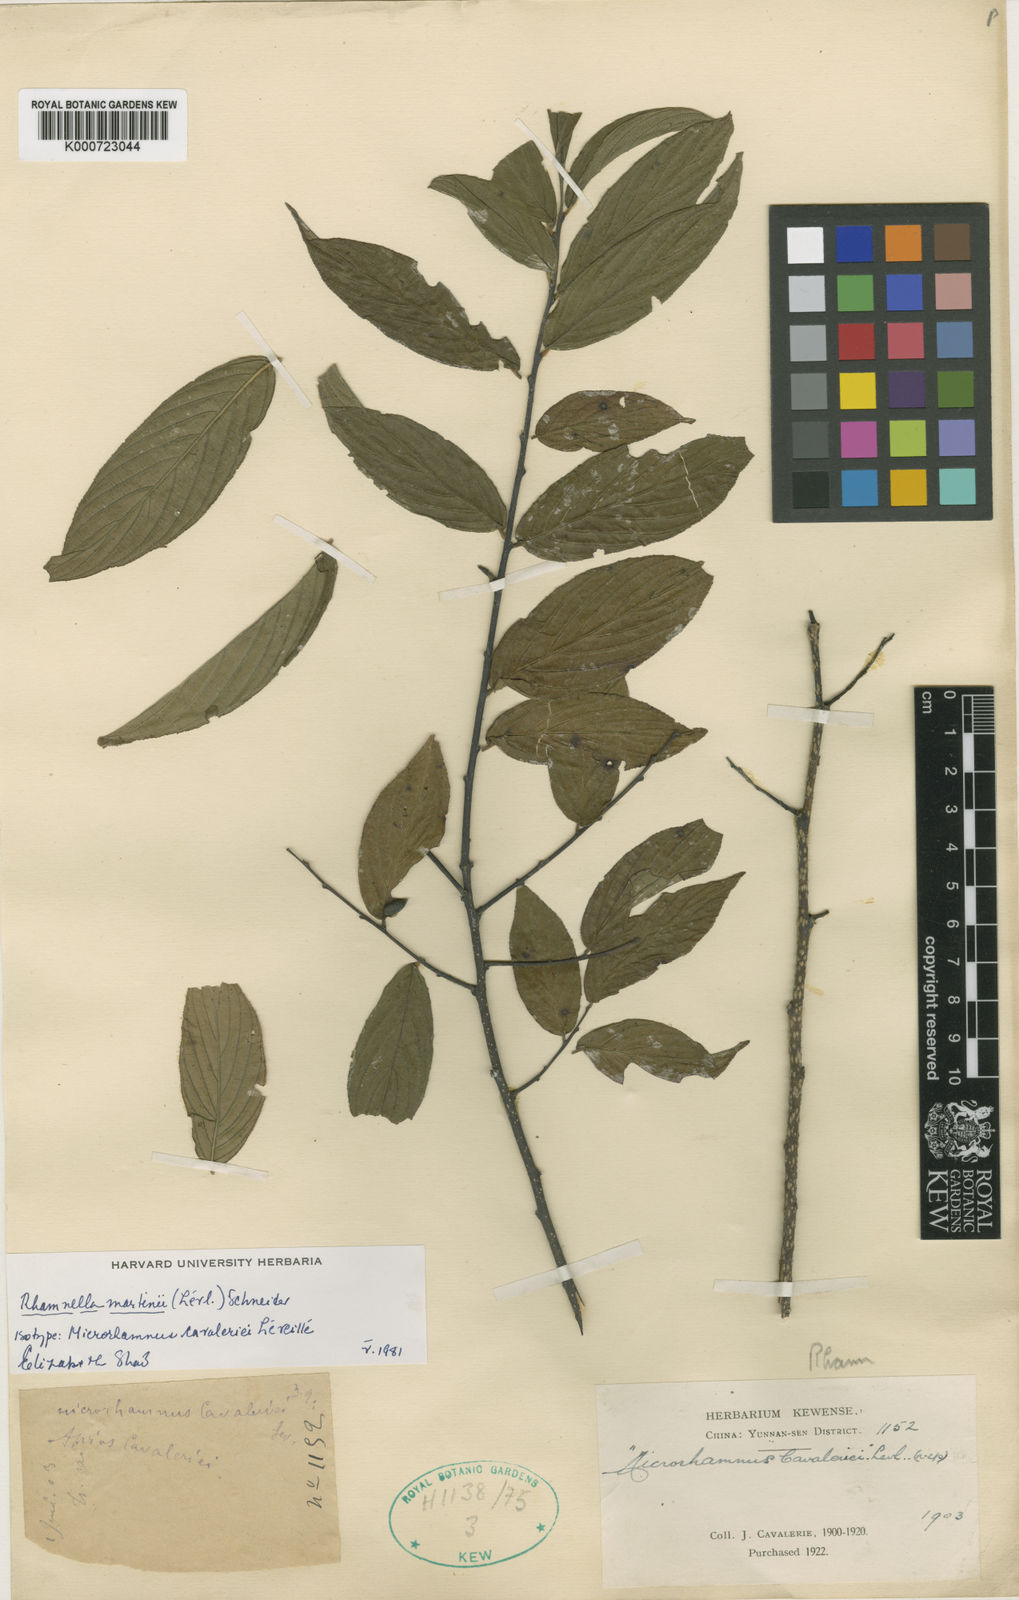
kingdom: Plantae
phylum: Tracheophyta
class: Magnoliopsida
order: Rosales
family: Rhamnaceae
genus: Rhamnella
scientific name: Rhamnella martini
